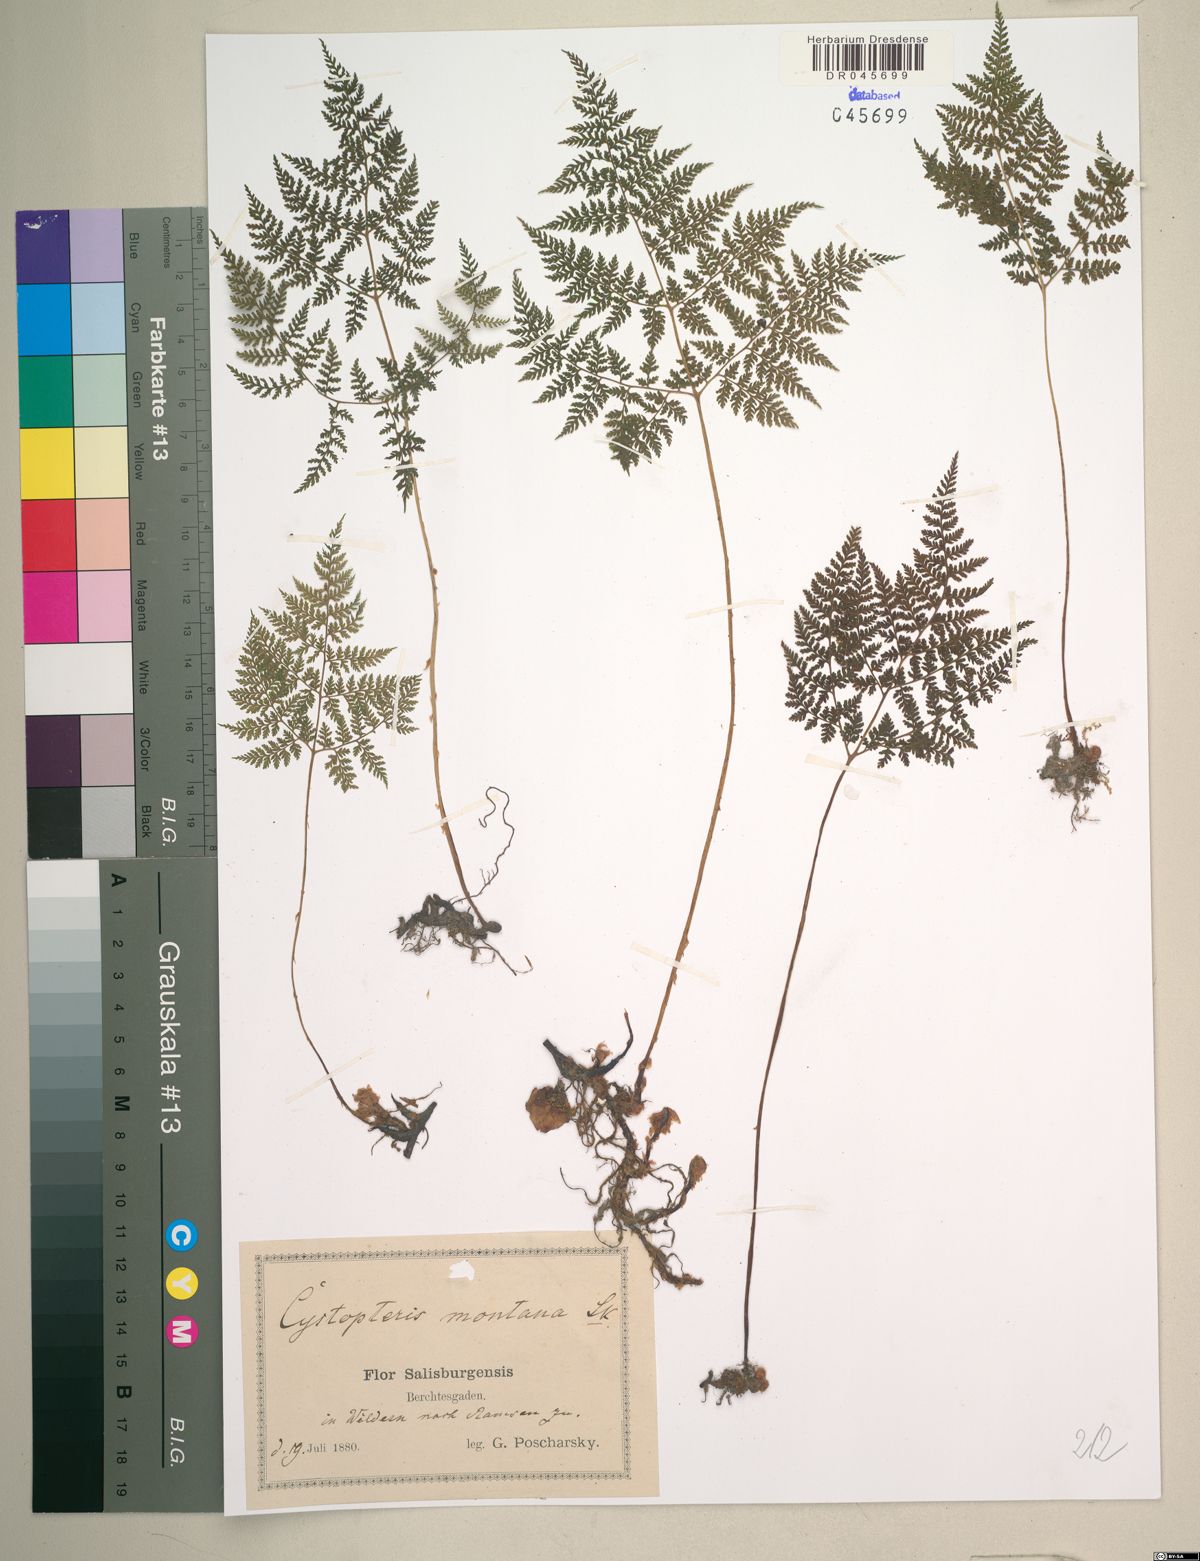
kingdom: Plantae
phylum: Tracheophyta
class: Polypodiopsida
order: Polypodiales
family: Cystopteridaceae
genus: Cystopteris
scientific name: Cystopteris montana
